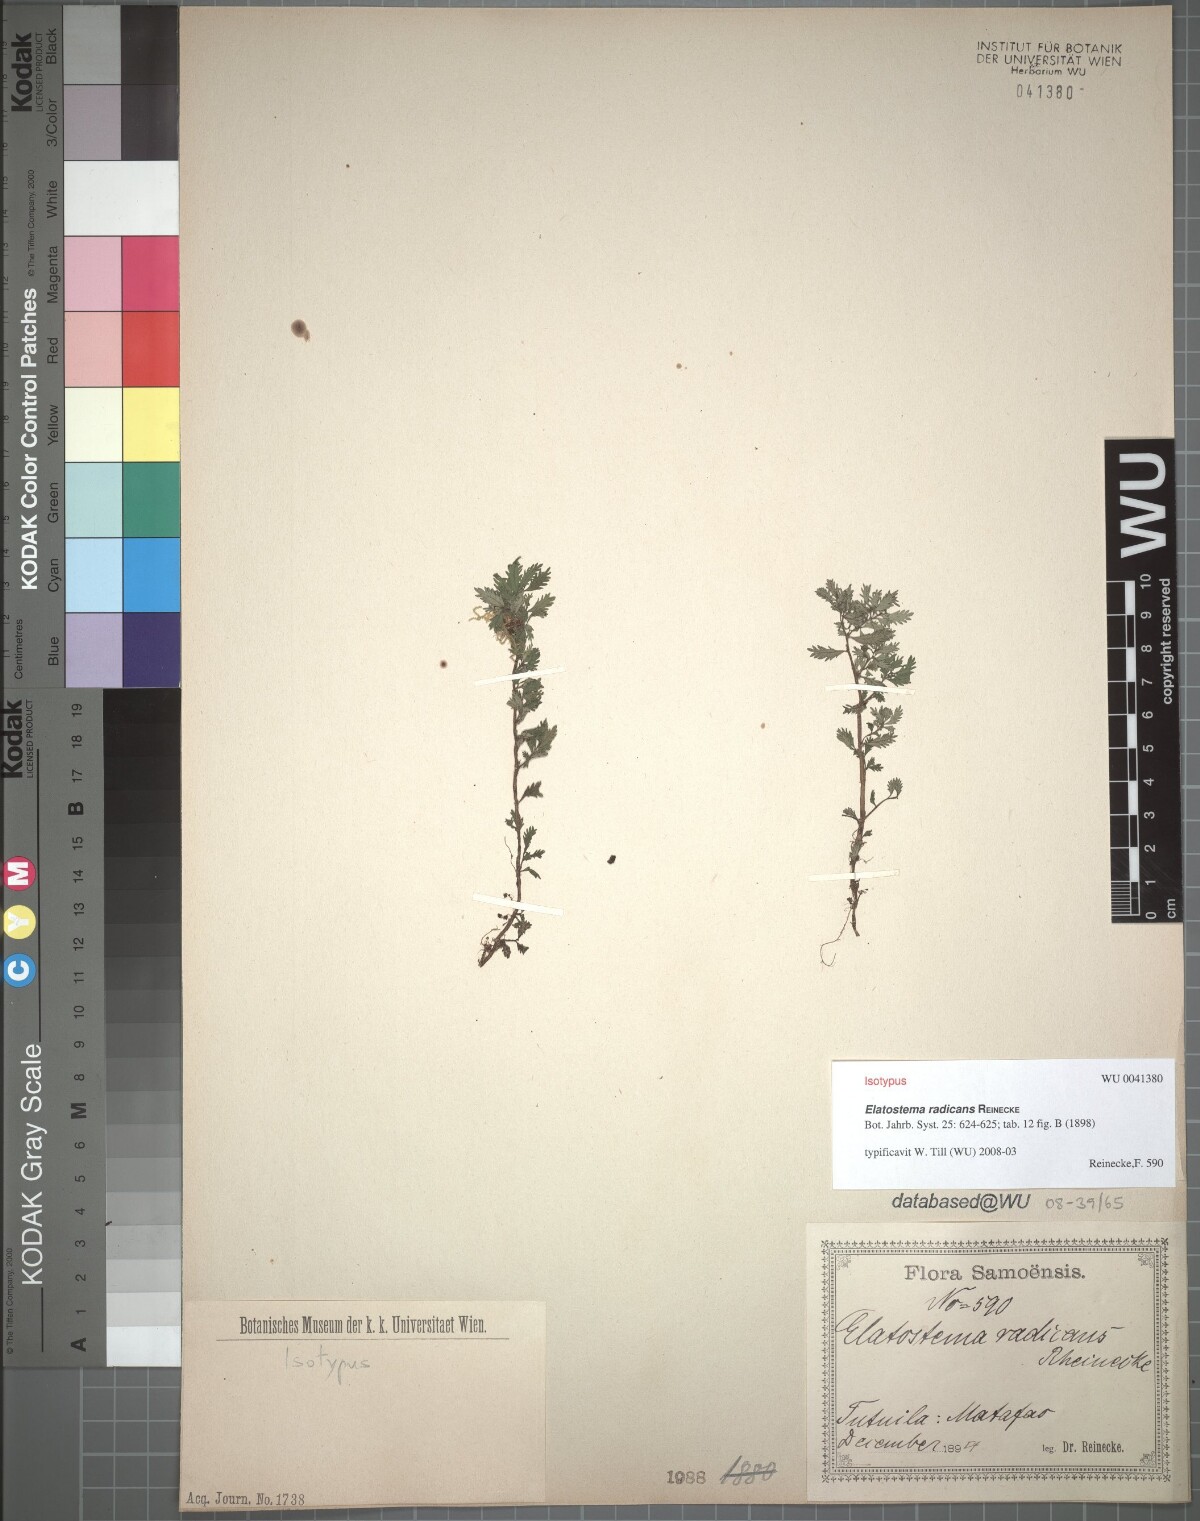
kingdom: Plantae
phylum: Tracheophyta
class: Magnoliopsida
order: Rosales
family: Urticaceae
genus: Elatostema
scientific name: Elatostema tutuilense
